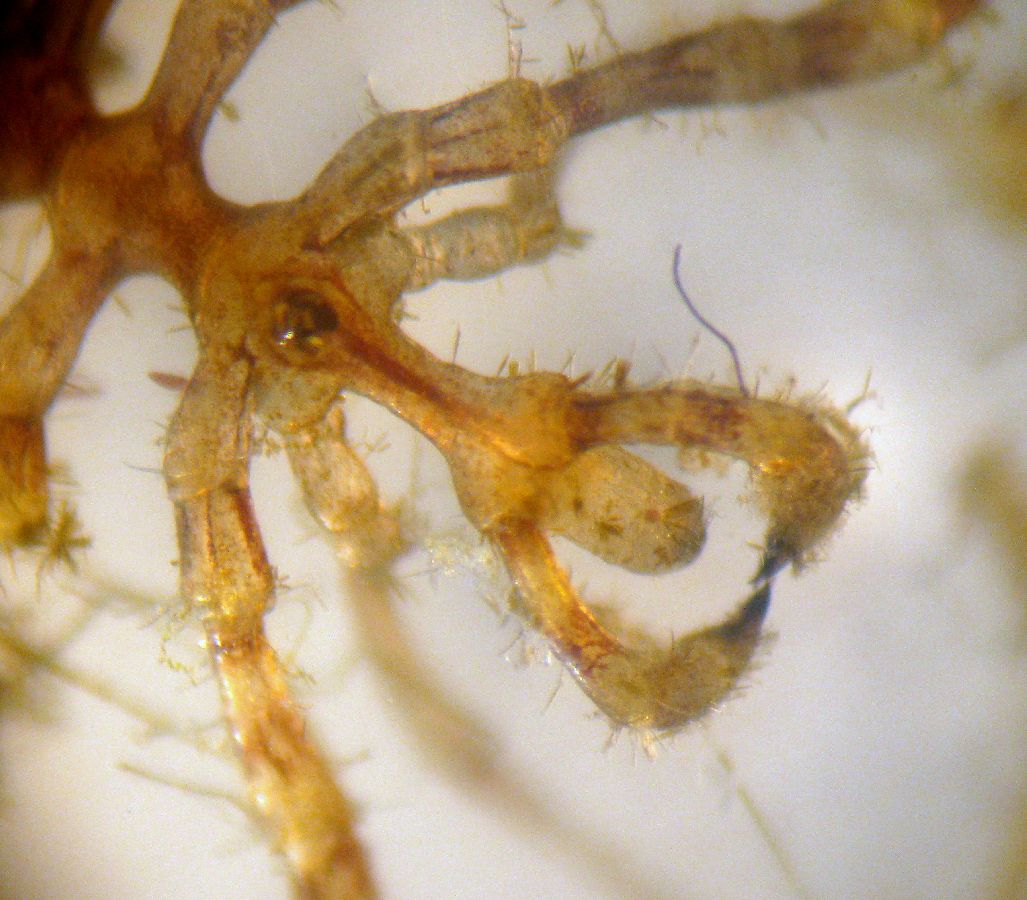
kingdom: Animalia
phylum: Arthropoda
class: Pycnogonida
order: Pantopoda
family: Nymphonidae
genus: Nymphon
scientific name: Nymphon grossipes
